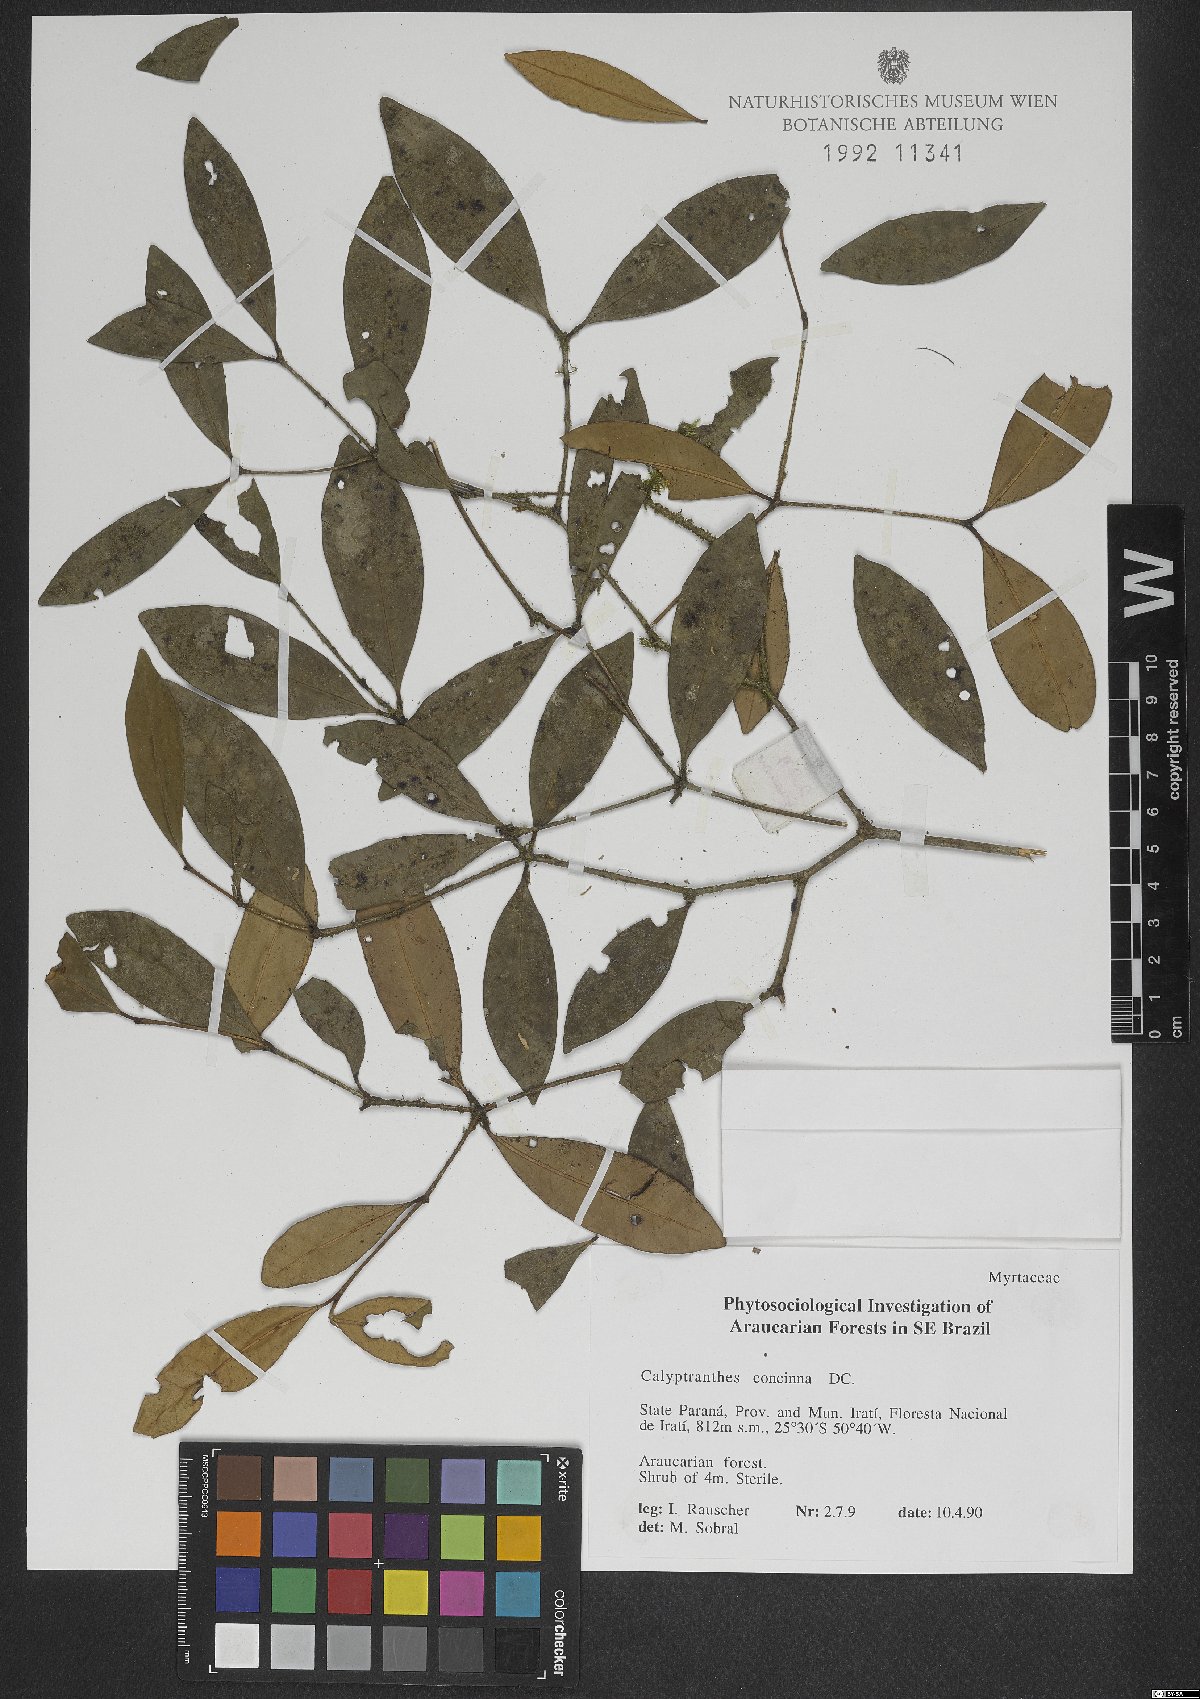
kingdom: Plantae
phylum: Tracheophyta
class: Magnoliopsida
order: Myrtales
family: Myrtaceae
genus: Myrcia
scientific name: Myrcia cruciflora
